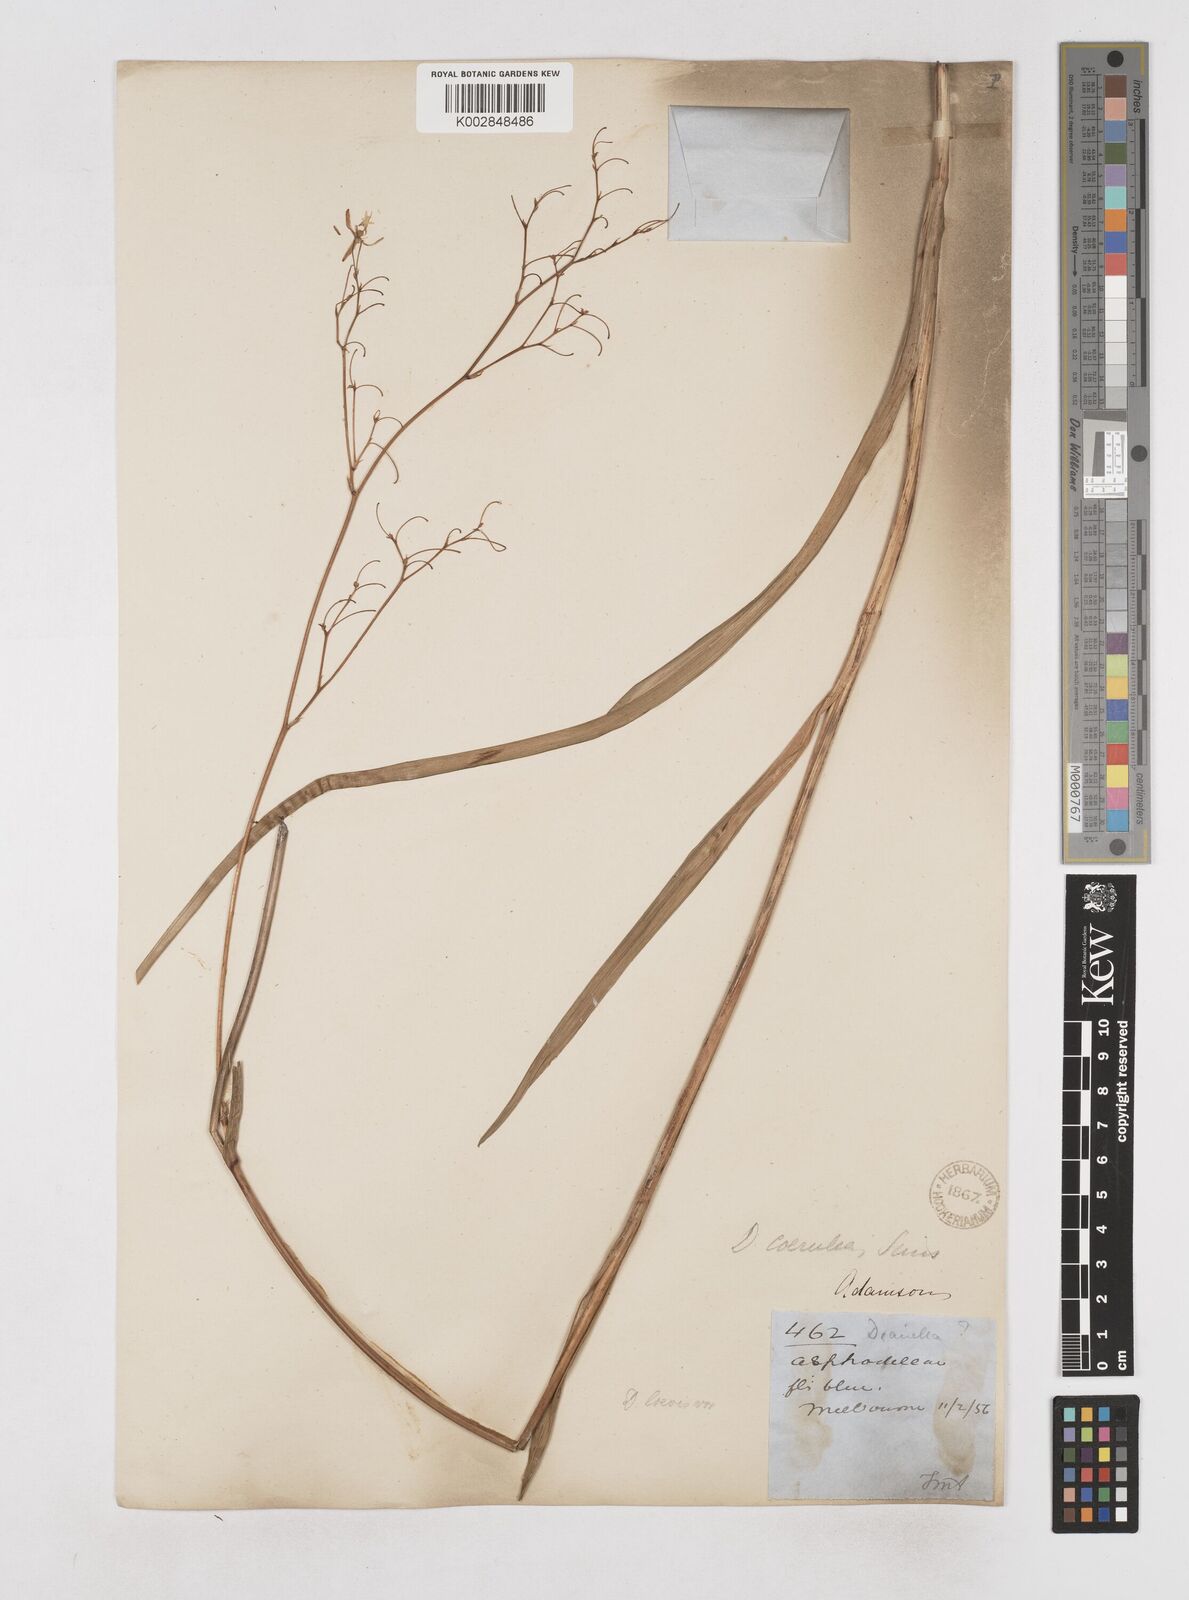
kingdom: Plantae
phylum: Tracheophyta
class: Liliopsida
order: Asparagales
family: Asphodelaceae
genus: Dianella
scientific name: Dianella longifolia
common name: Blue flax-lily
